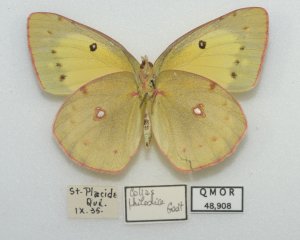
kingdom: Animalia
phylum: Arthropoda
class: Insecta
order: Lepidoptera
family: Pieridae
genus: Colias
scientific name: Colias philodice
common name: Clouded Sulphur
